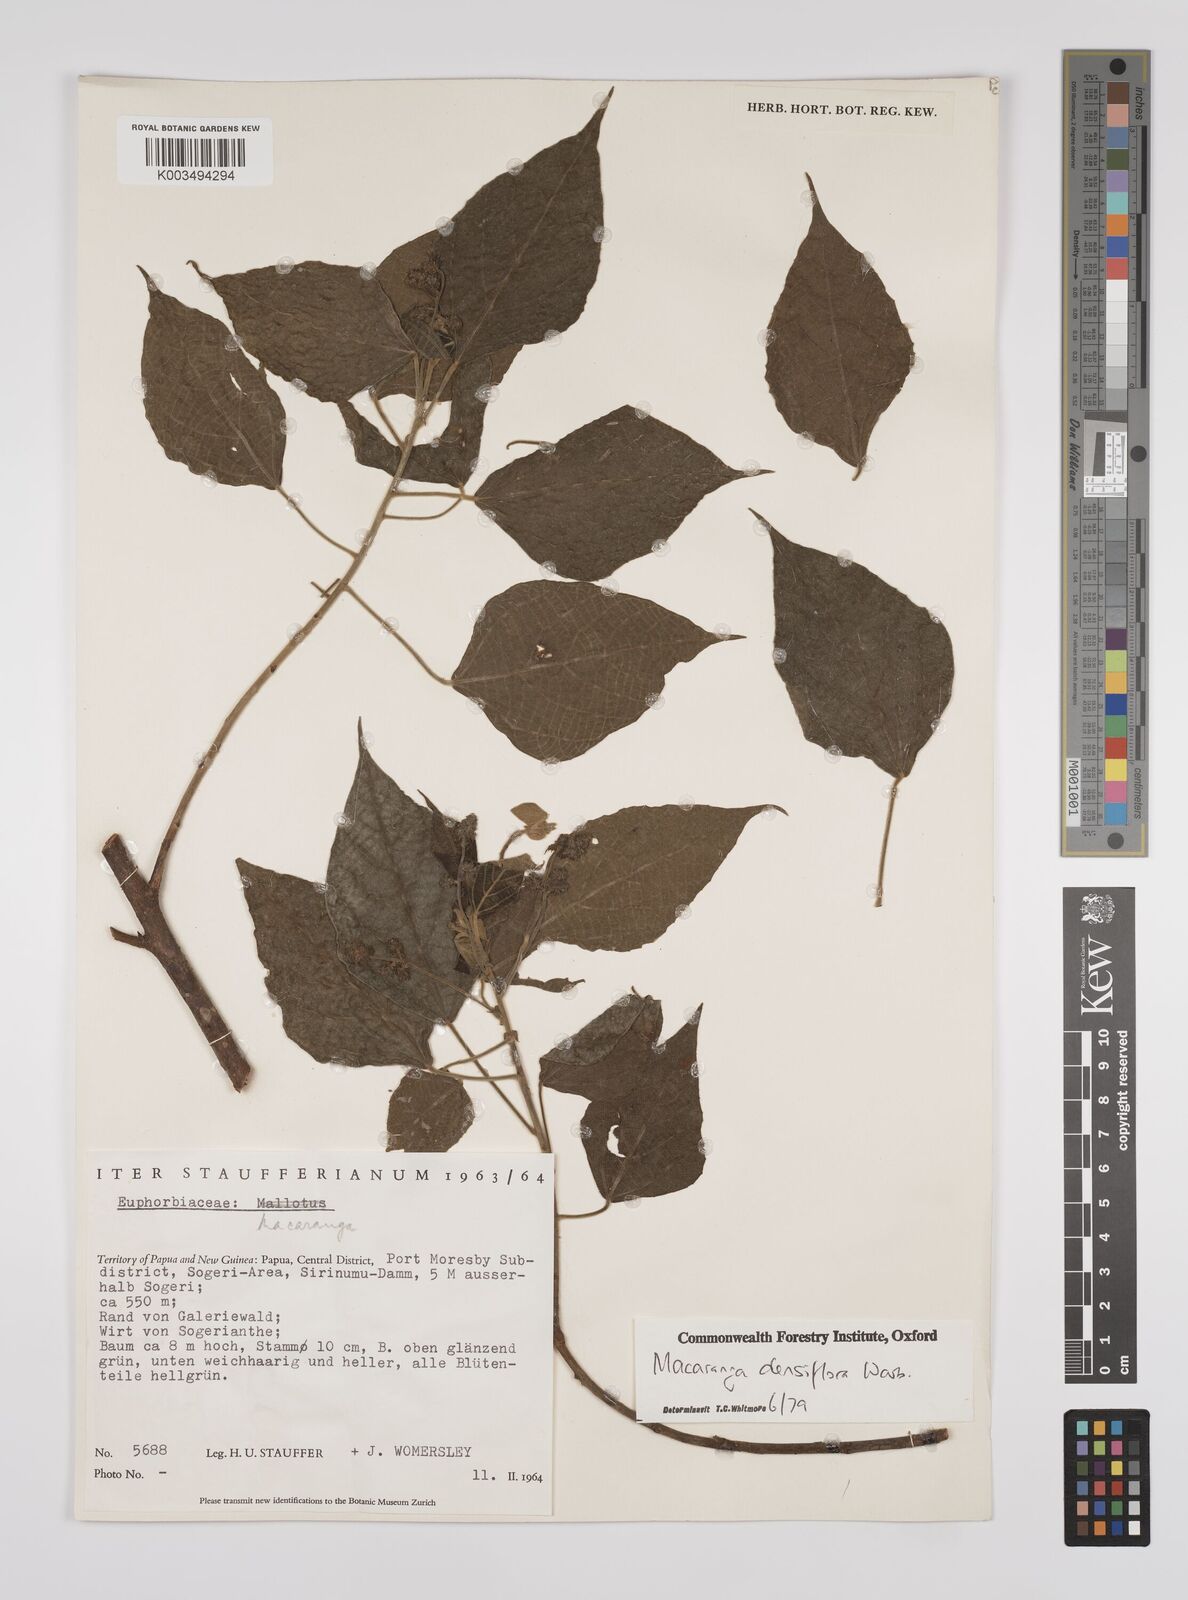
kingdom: Plantae
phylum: Tracheophyta
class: Magnoliopsida
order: Malpighiales
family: Euphorbiaceae
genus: Macaranga
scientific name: Macaranga densiflora
